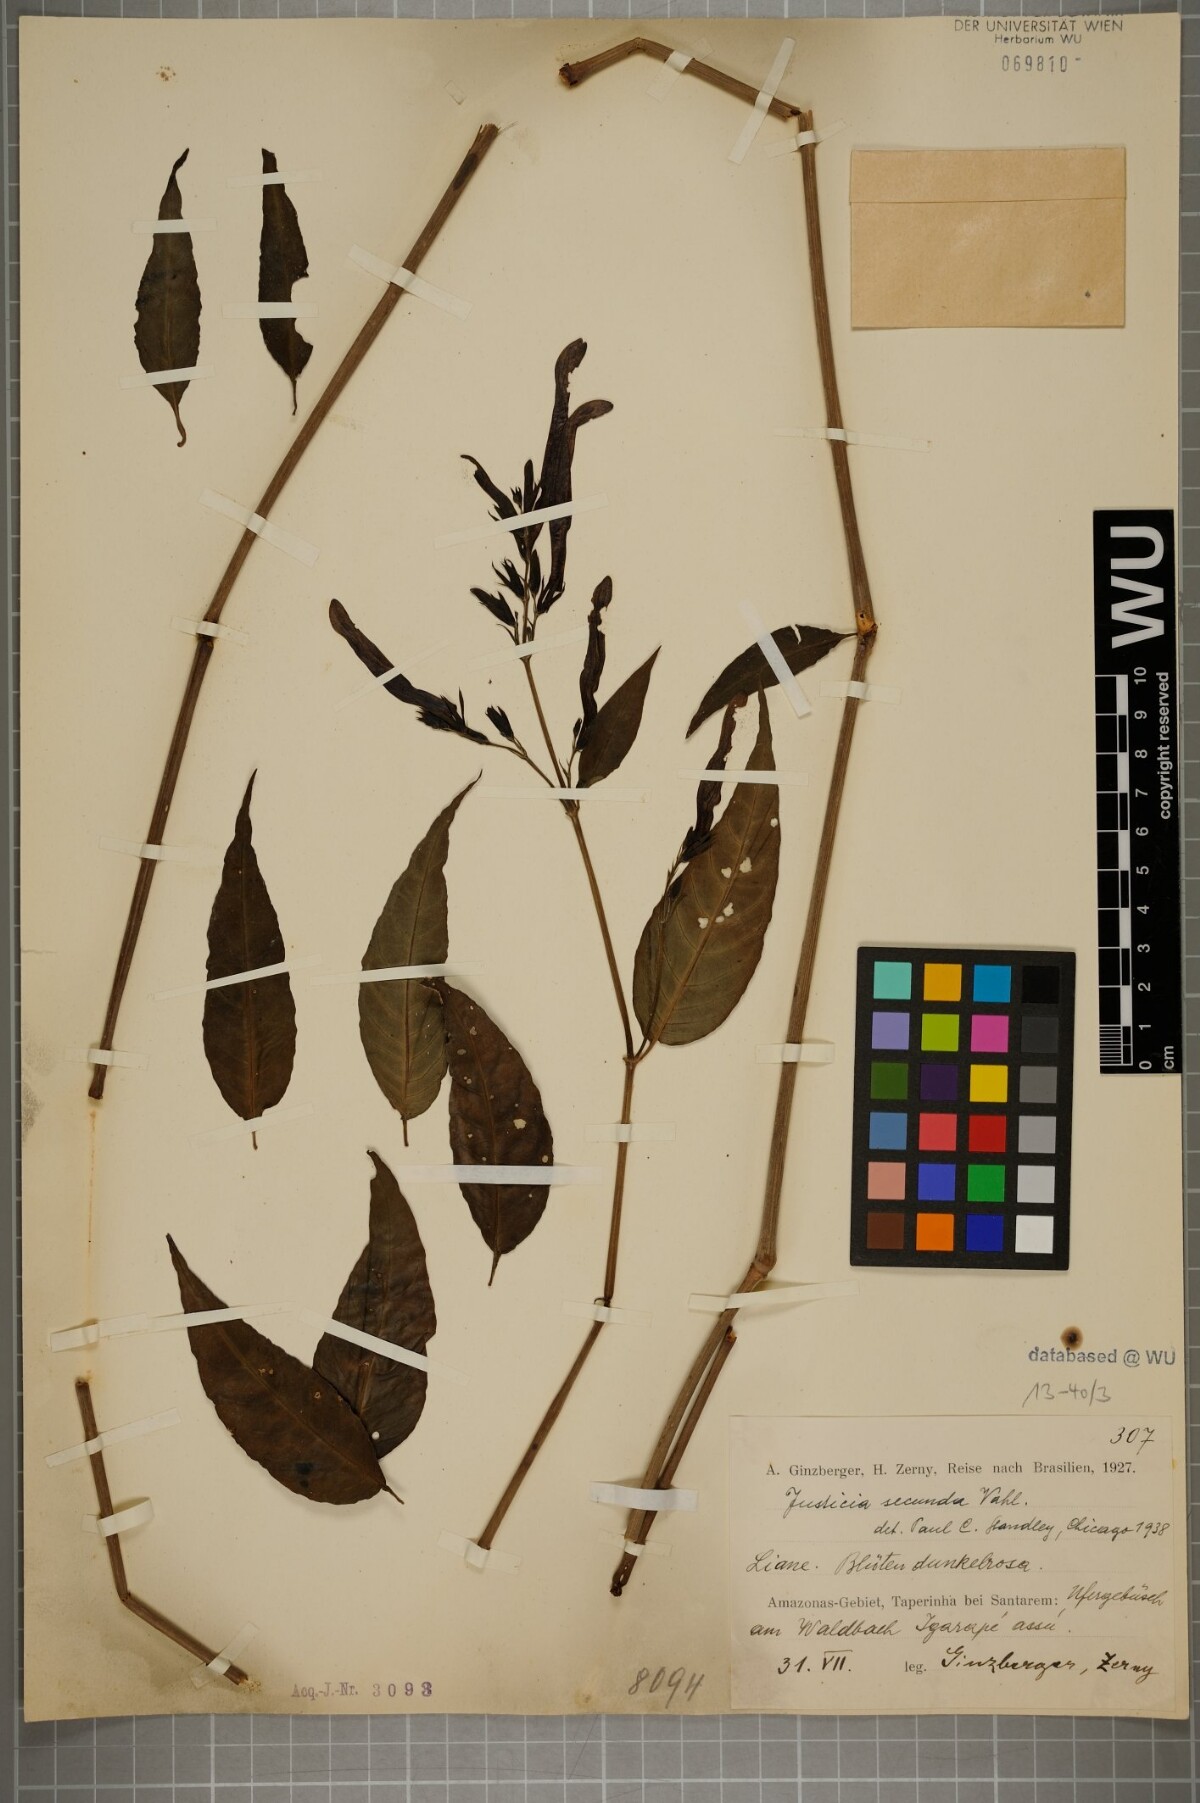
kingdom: Plantae
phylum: Tracheophyta
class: Magnoliopsida
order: Lamiales
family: Acanthaceae
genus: Justicia
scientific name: Justicia secunda
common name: Blood root
